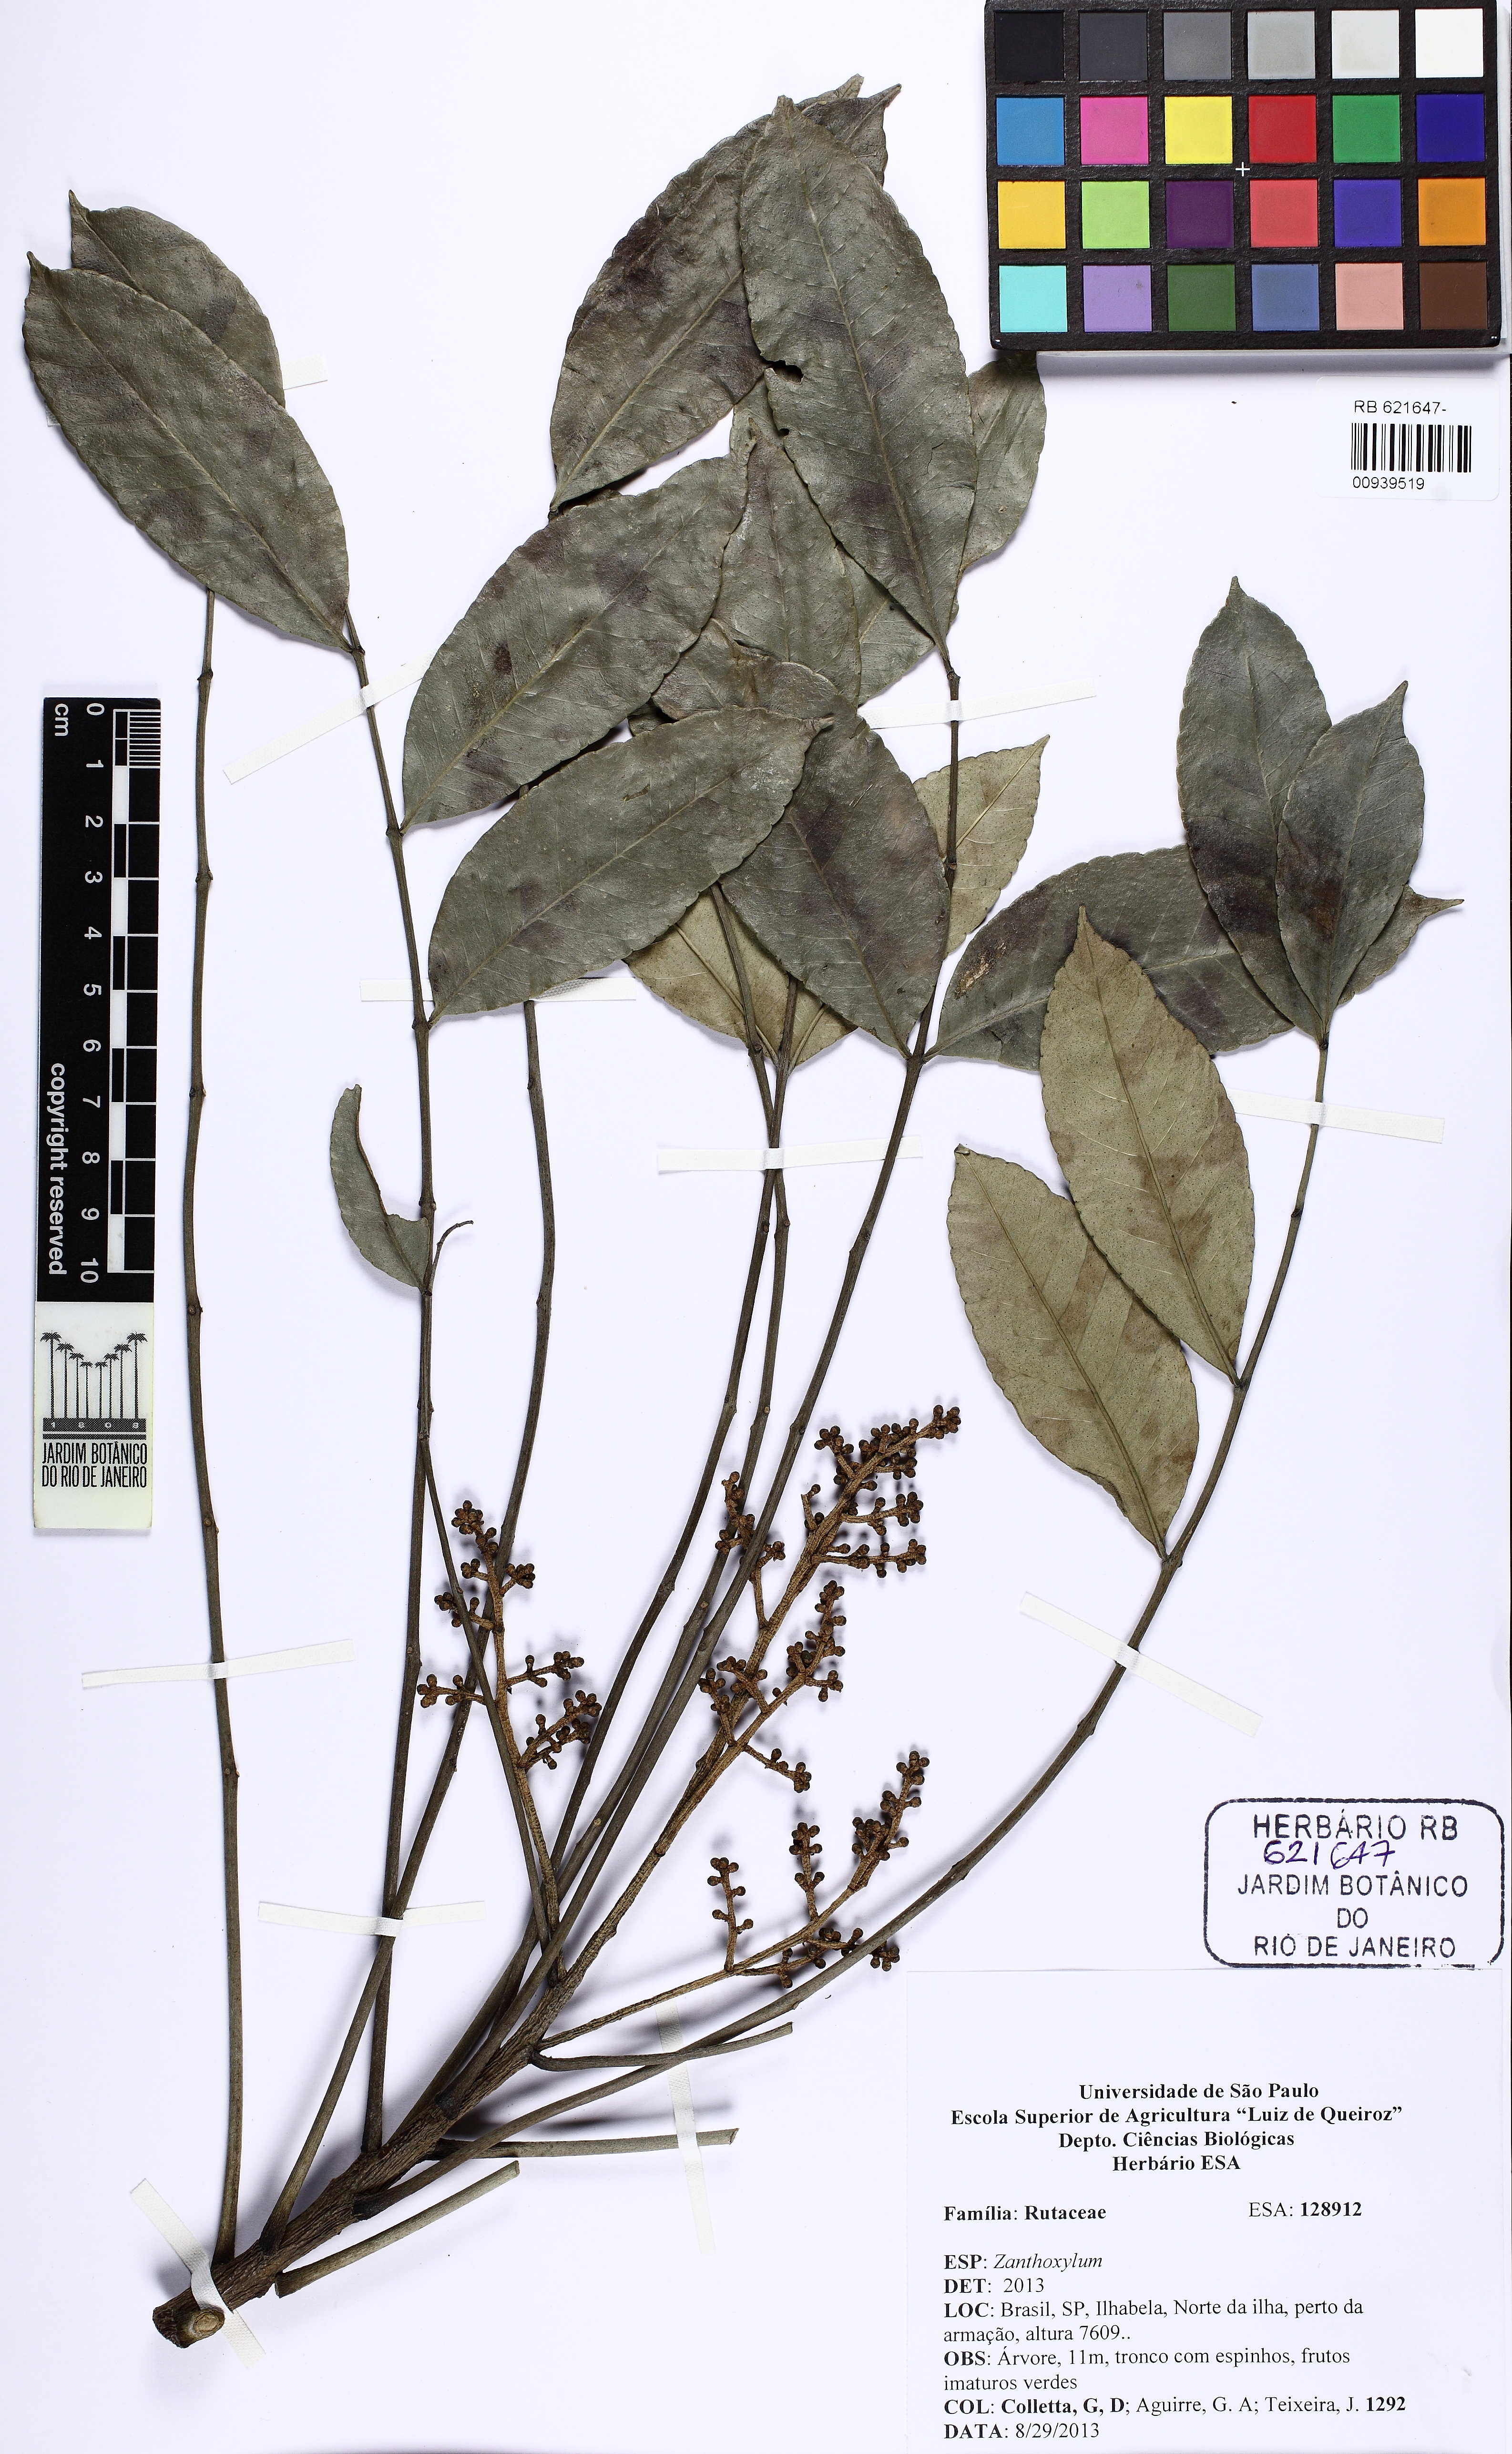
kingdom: Plantae
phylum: Tracheophyta
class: Magnoliopsida
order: Sapindales
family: Rutaceae
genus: Zanthoxylum
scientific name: Zanthoxylum caribaeum
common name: Prickly yellow
